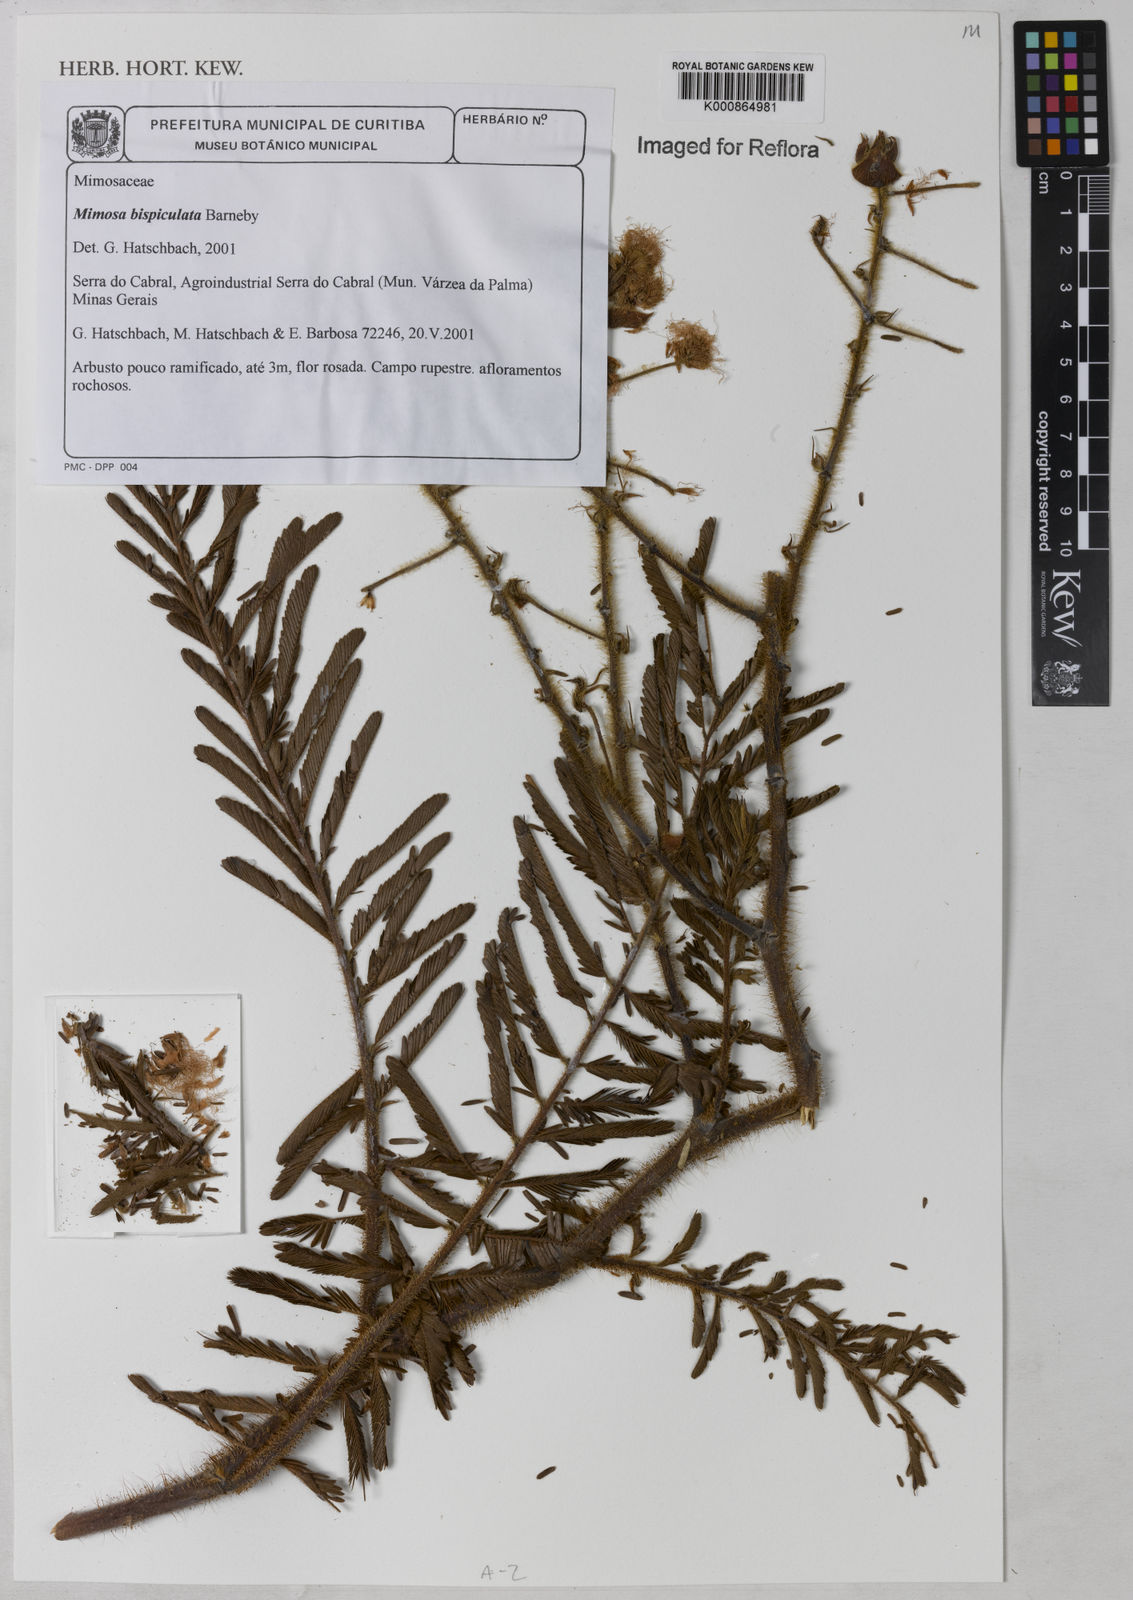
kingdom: Plantae
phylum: Tracheophyta
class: Magnoliopsida
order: Fabales
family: Fabaceae
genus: Mimosa
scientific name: Mimosa bispiculata
